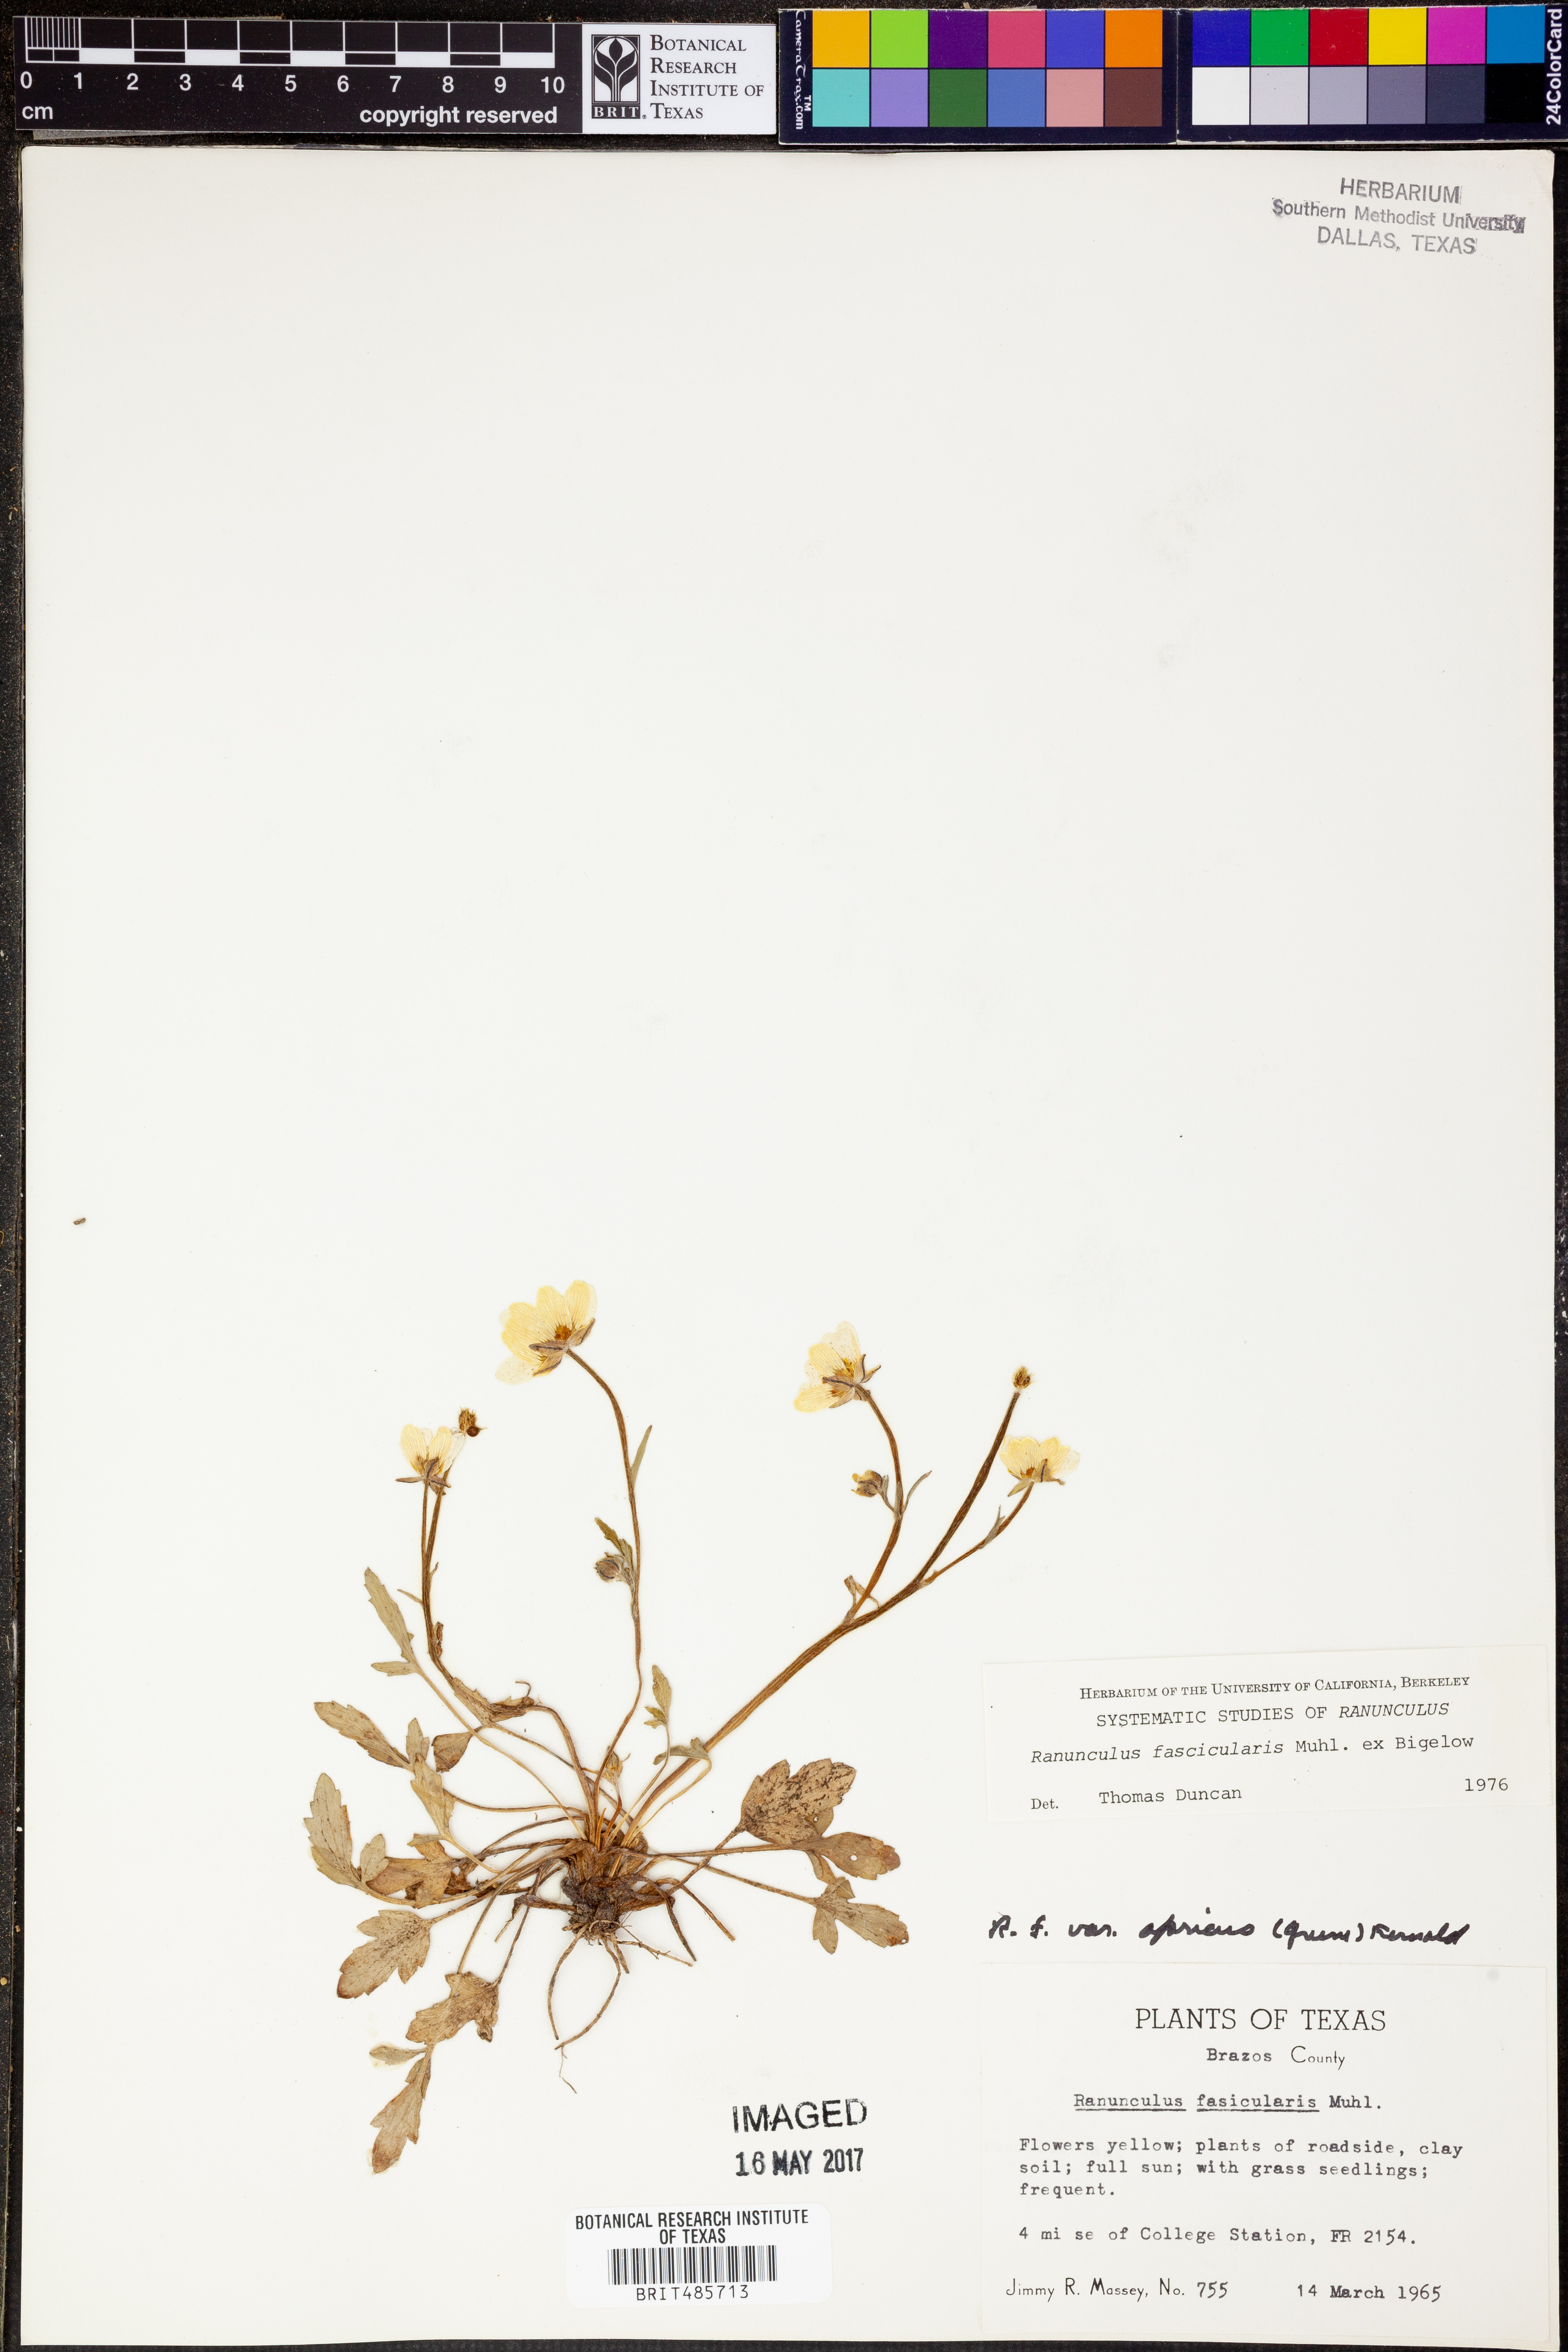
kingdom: Plantae
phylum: Tracheophyta
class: Magnoliopsida
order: Ranunculales
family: Ranunculaceae
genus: Ranunculus
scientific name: Ranunculus fascicularis
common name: Early buttercup
